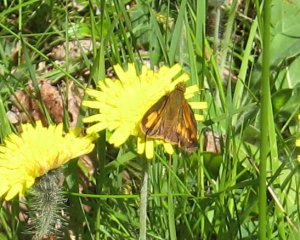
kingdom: Animalia
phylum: Arthropoda
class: Insecta
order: Lepidoptera
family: Hesperiidae
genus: Lon
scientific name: Lon hobomok
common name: Hobomok Skipper
